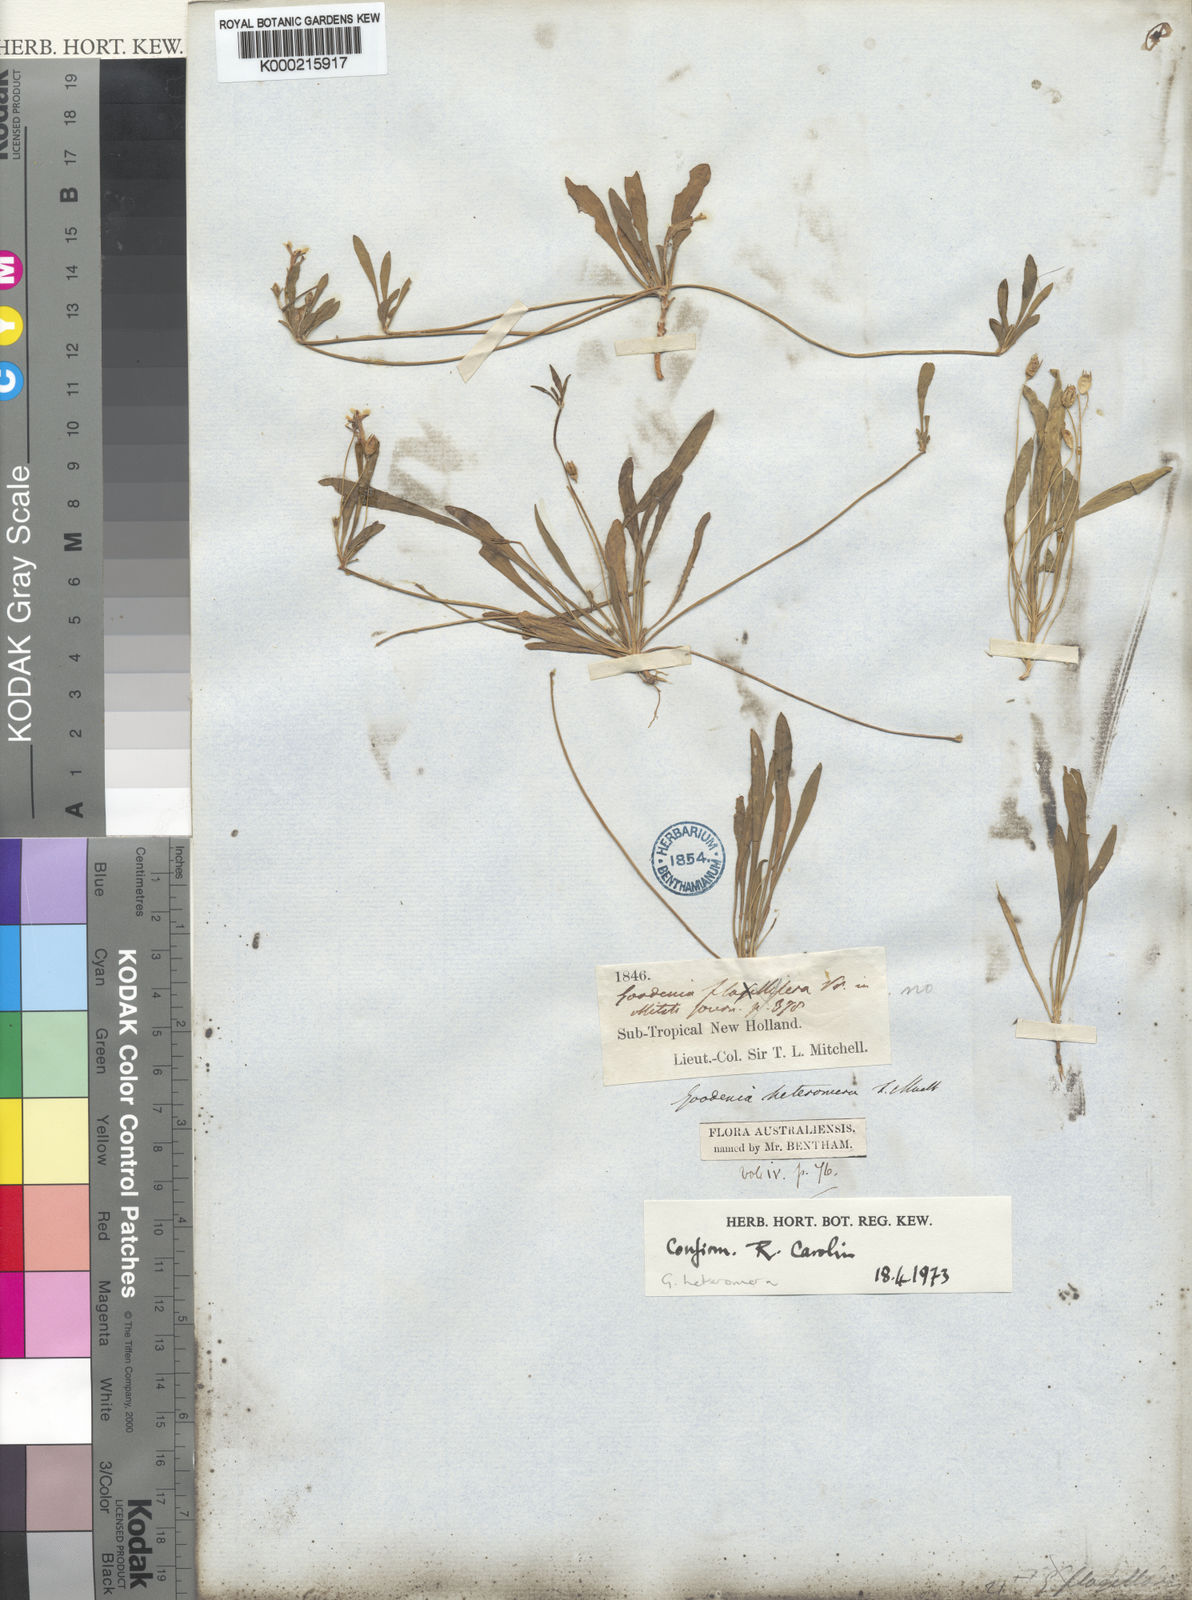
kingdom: Plantae
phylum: Tracheophyta
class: Magnoliopsida
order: Asterales
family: Goodeniaceae
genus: Goodenia
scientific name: Goodenia heteromera
